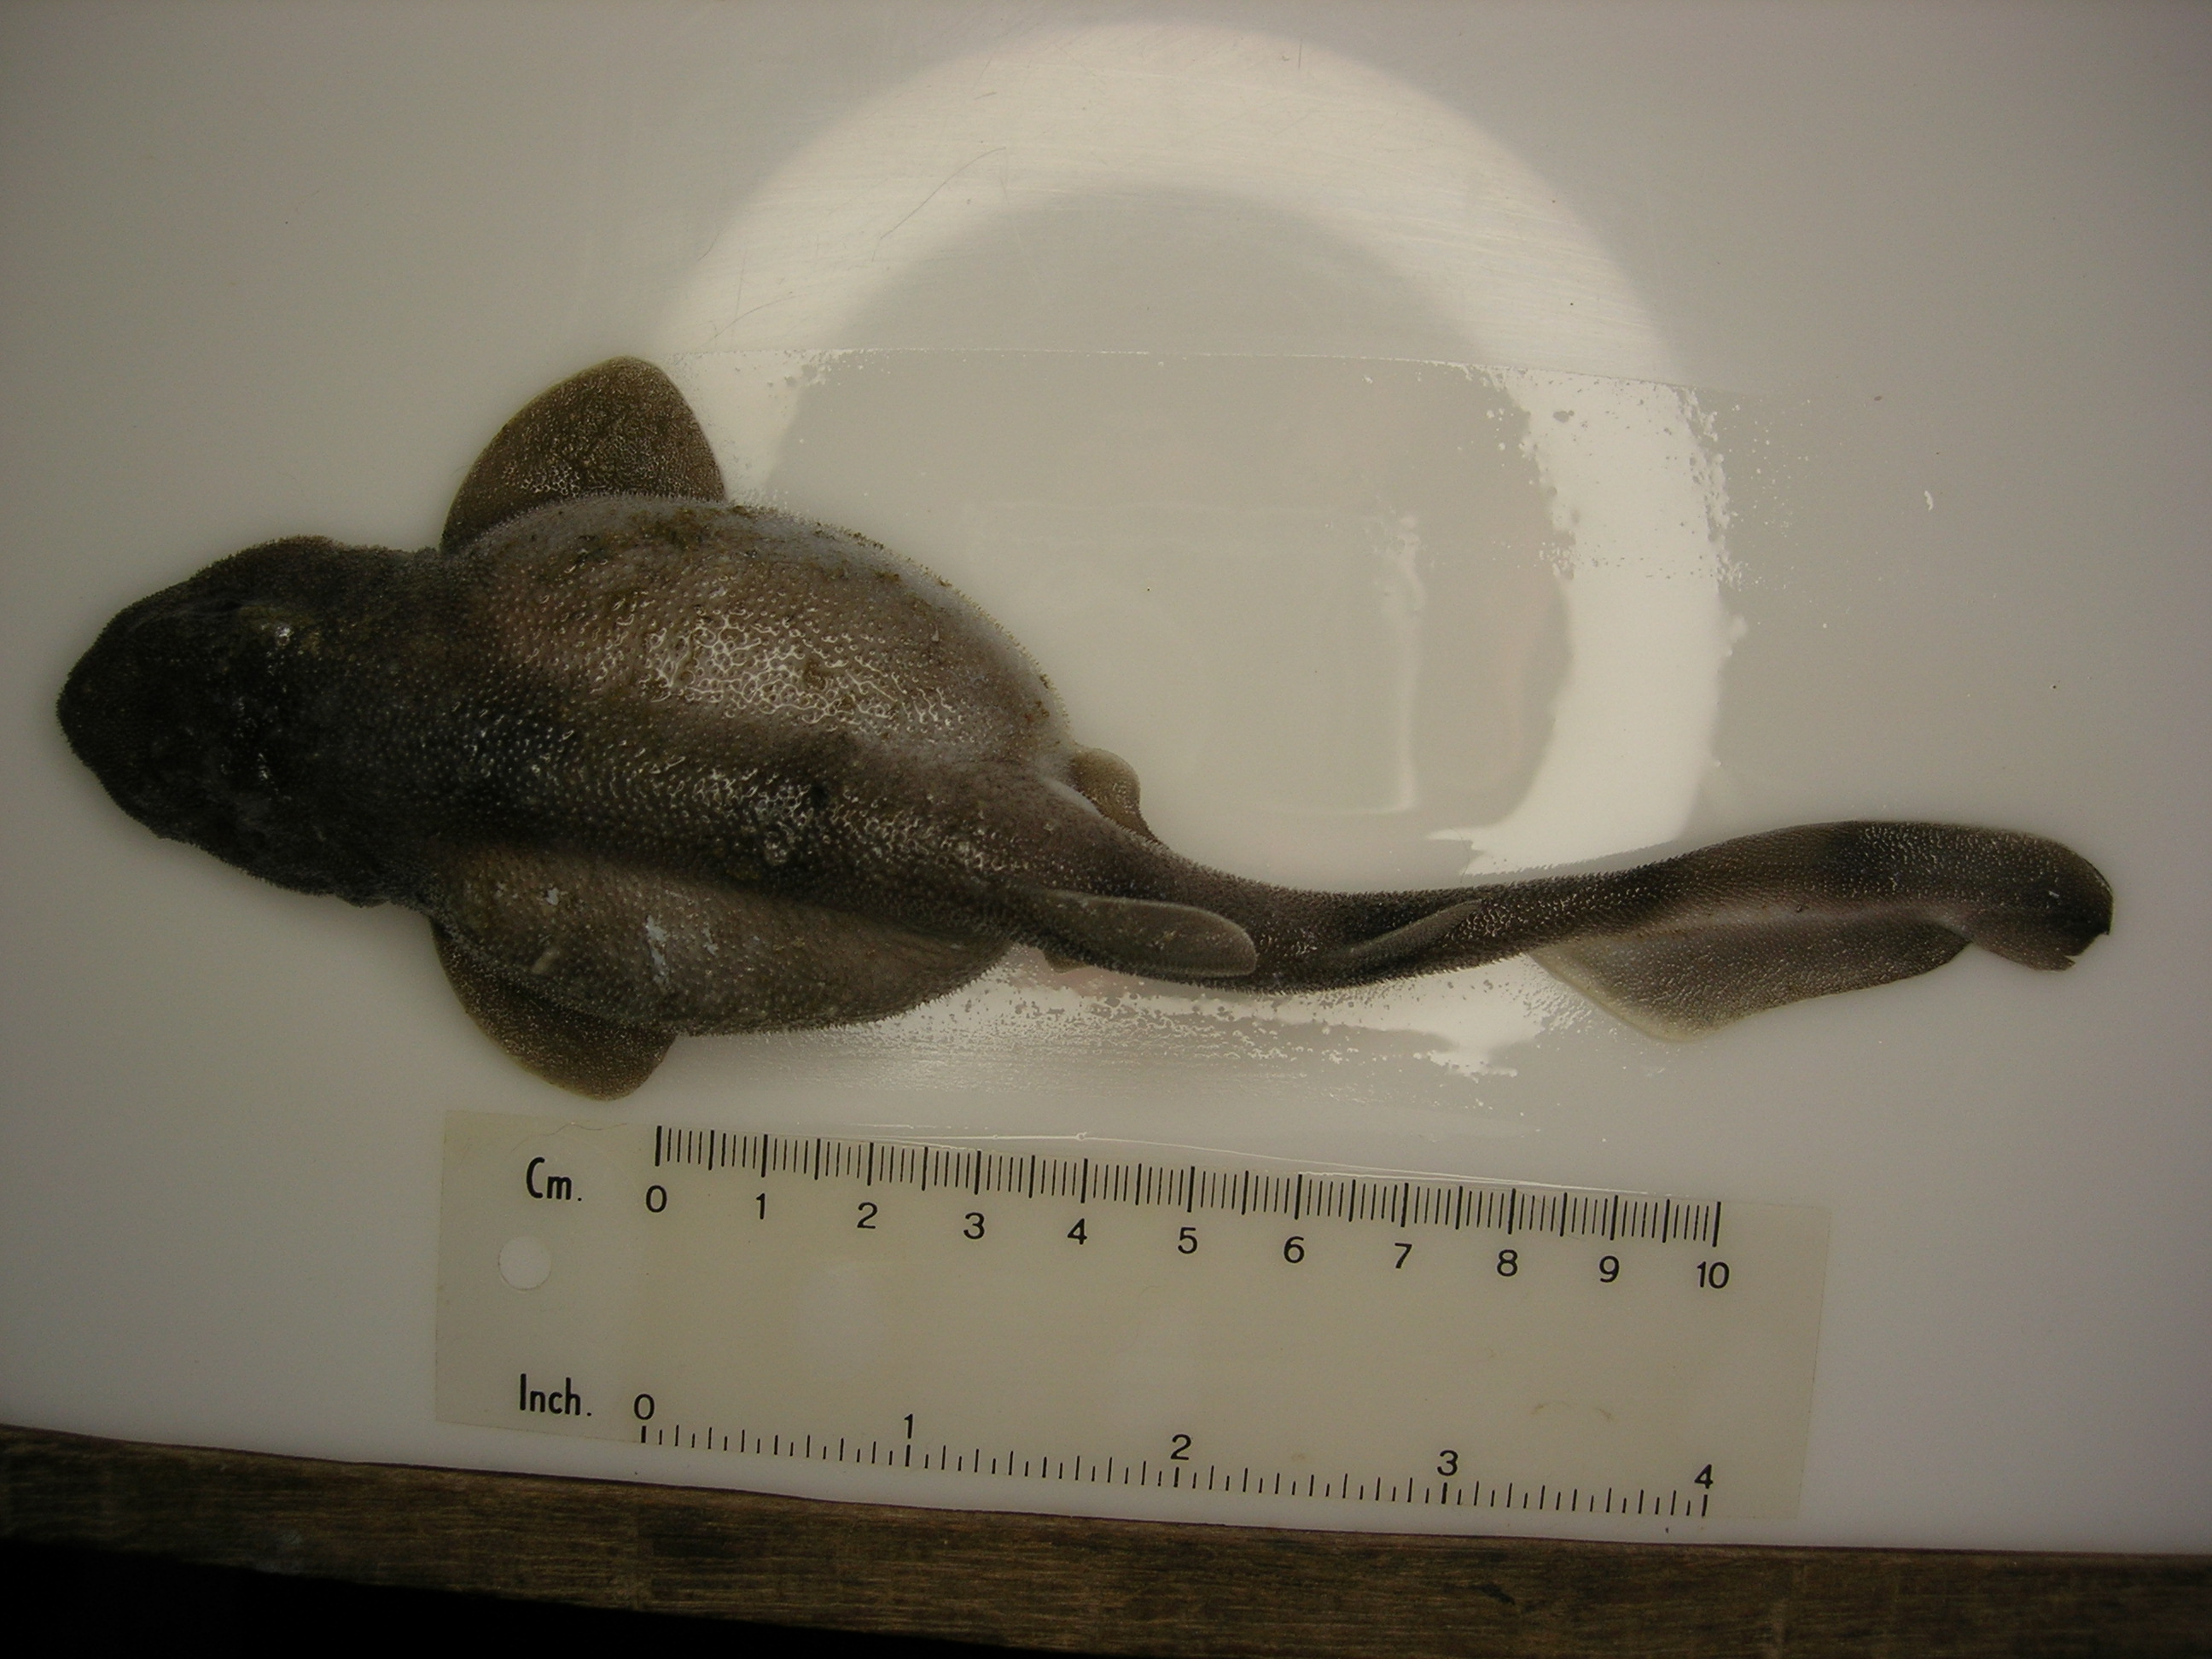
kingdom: Animalia
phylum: Chordata
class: Elasmobranchii
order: Carcharhiniformes
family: Scyliorhinidae
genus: Cephaloscyllium
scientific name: Cephaloscyllium sufflans
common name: Balloon shark
